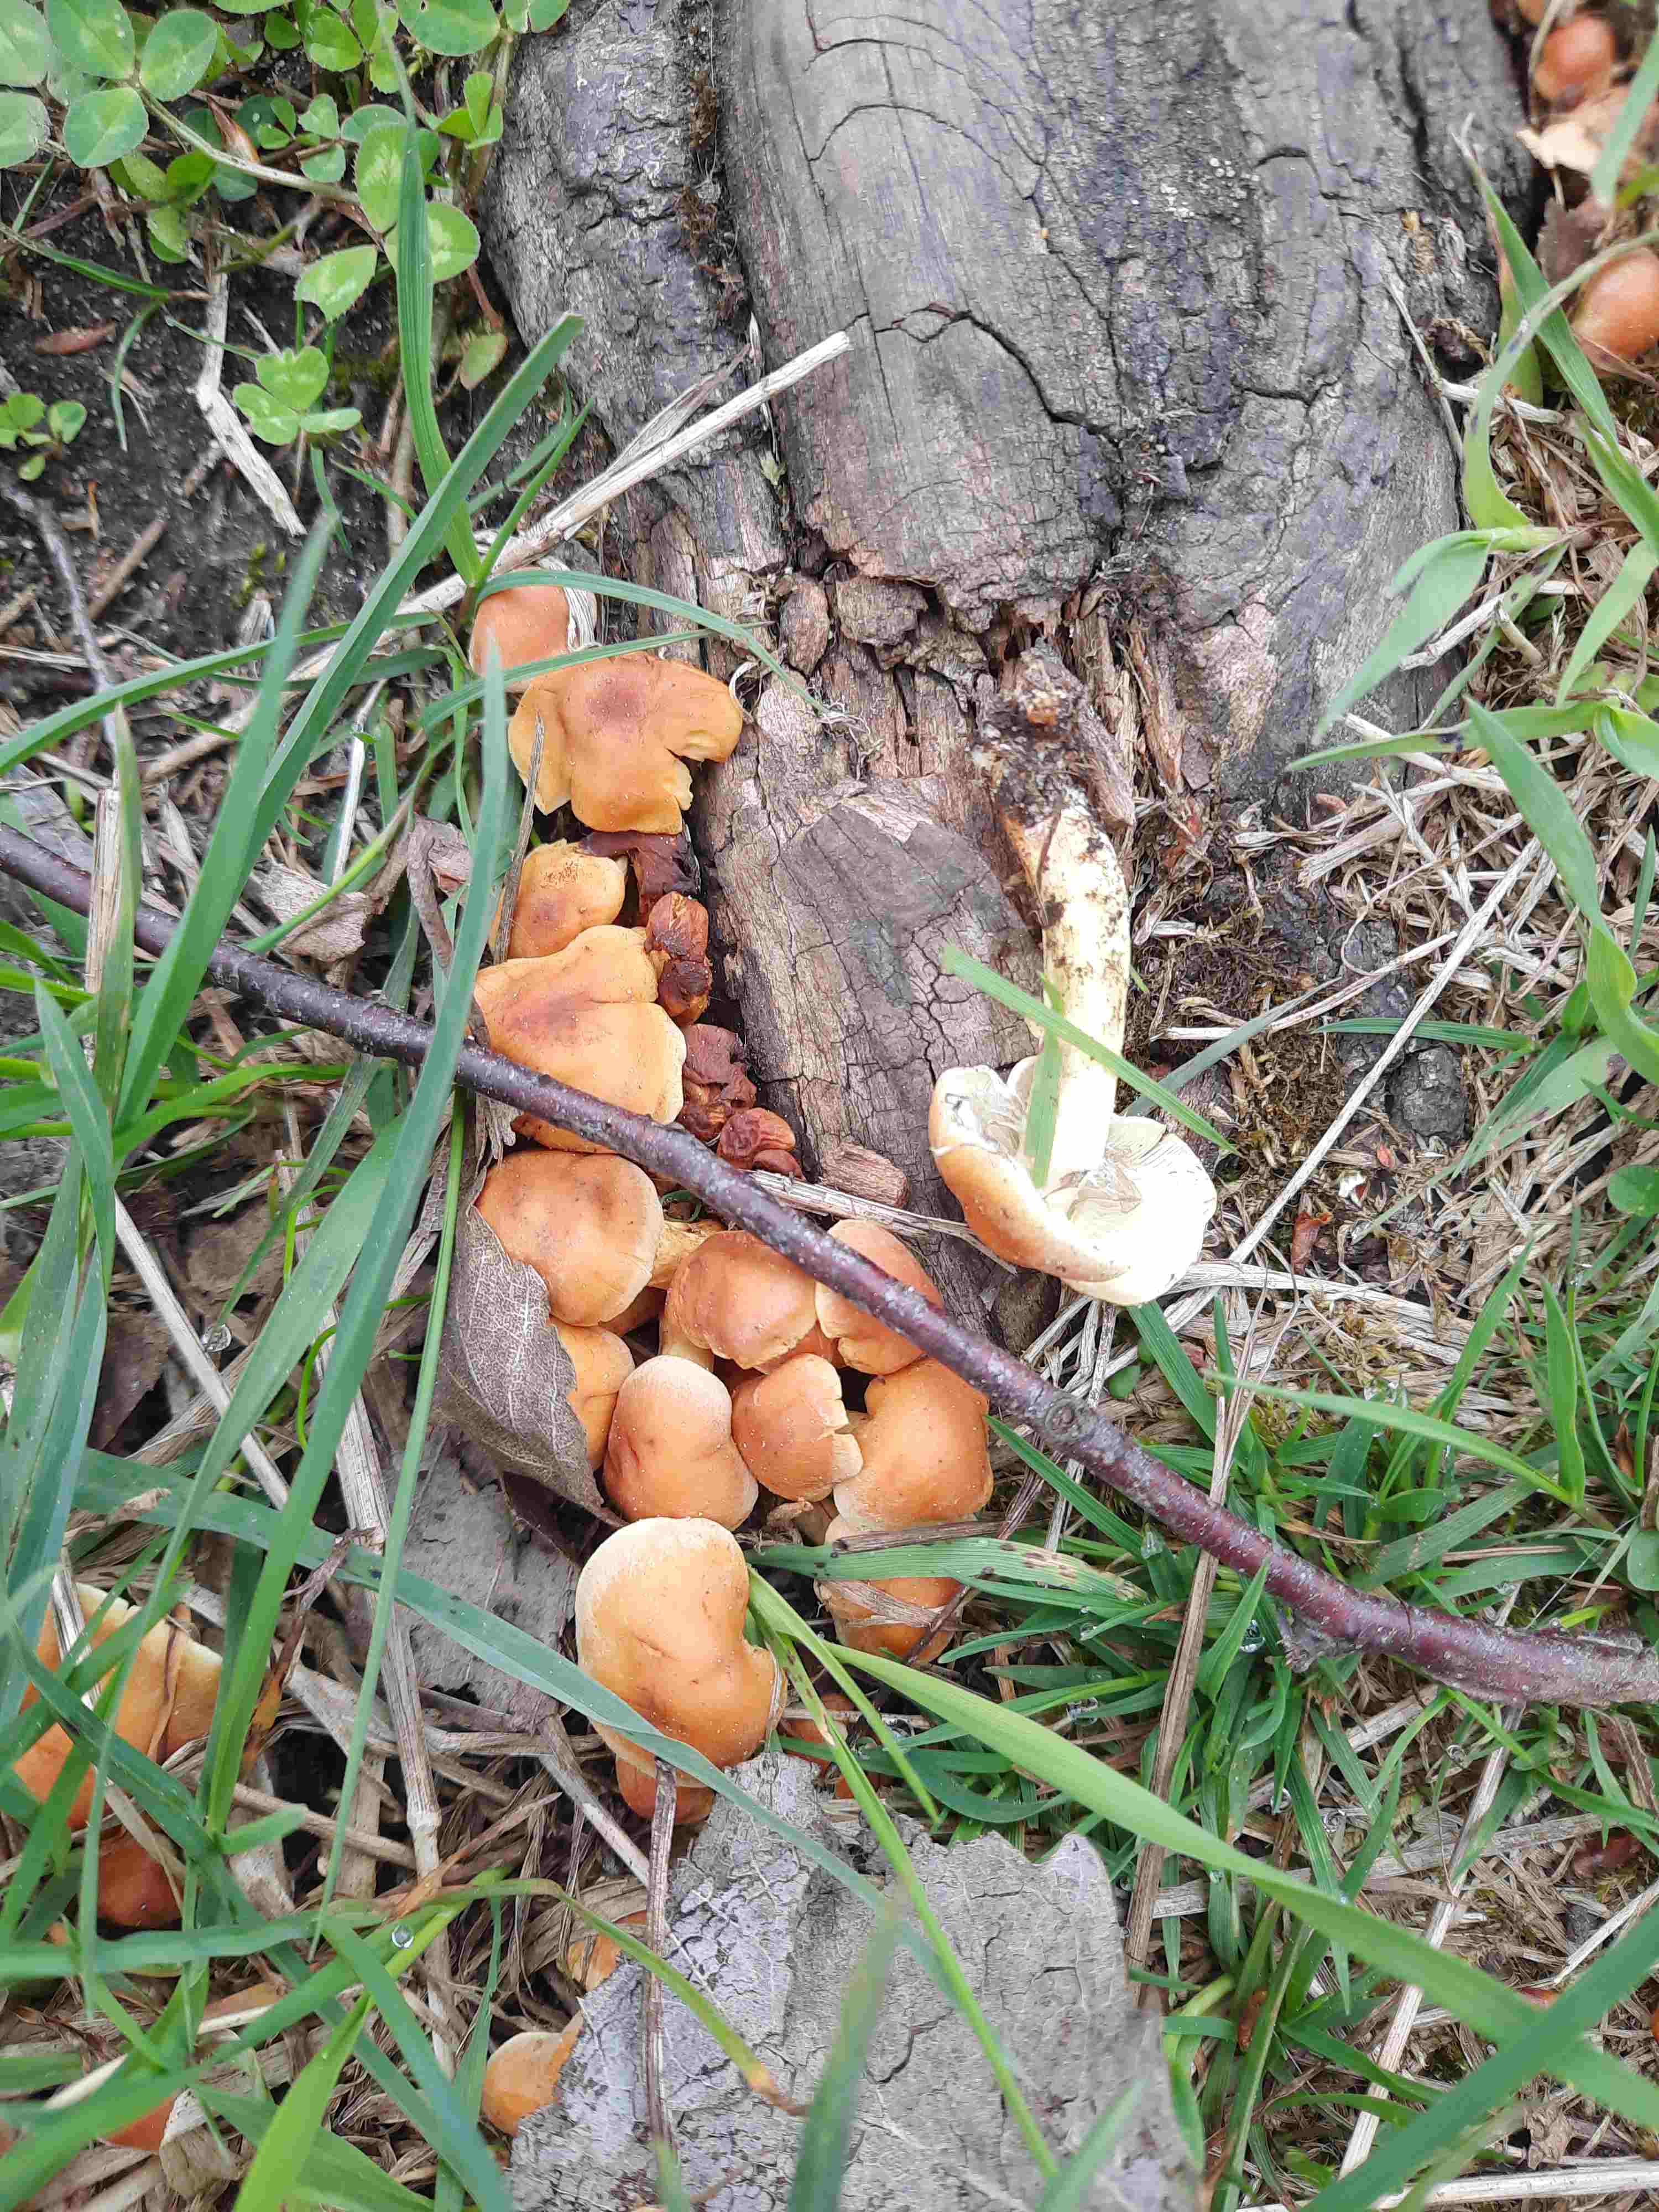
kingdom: Fungi
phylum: Basidiomycota
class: Agaricomycetes
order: Agaricales
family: Strophariaceae
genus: Hypholoma
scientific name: Hypholoma fasciculare
